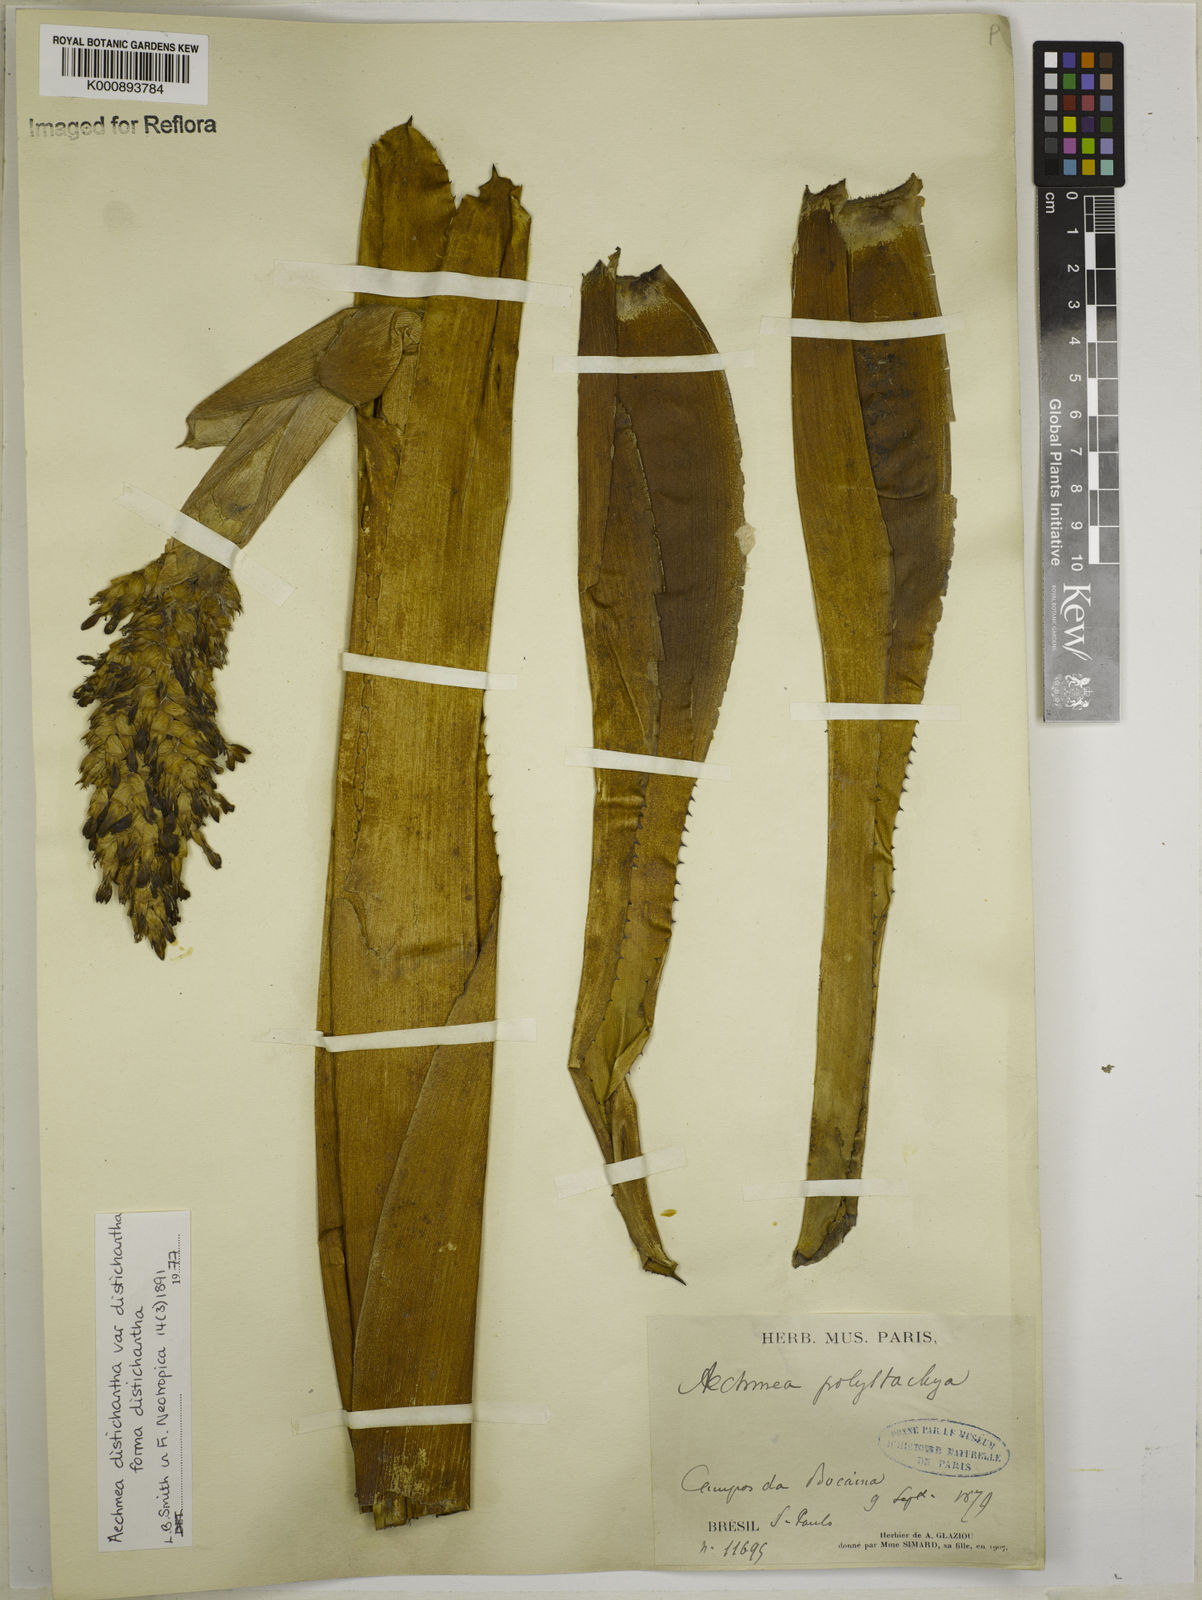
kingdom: Plantae
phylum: Tracheophyta
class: Liliopsida
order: Poales
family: Bromeliaceae
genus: Aechmea
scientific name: Aechmea distichantha
